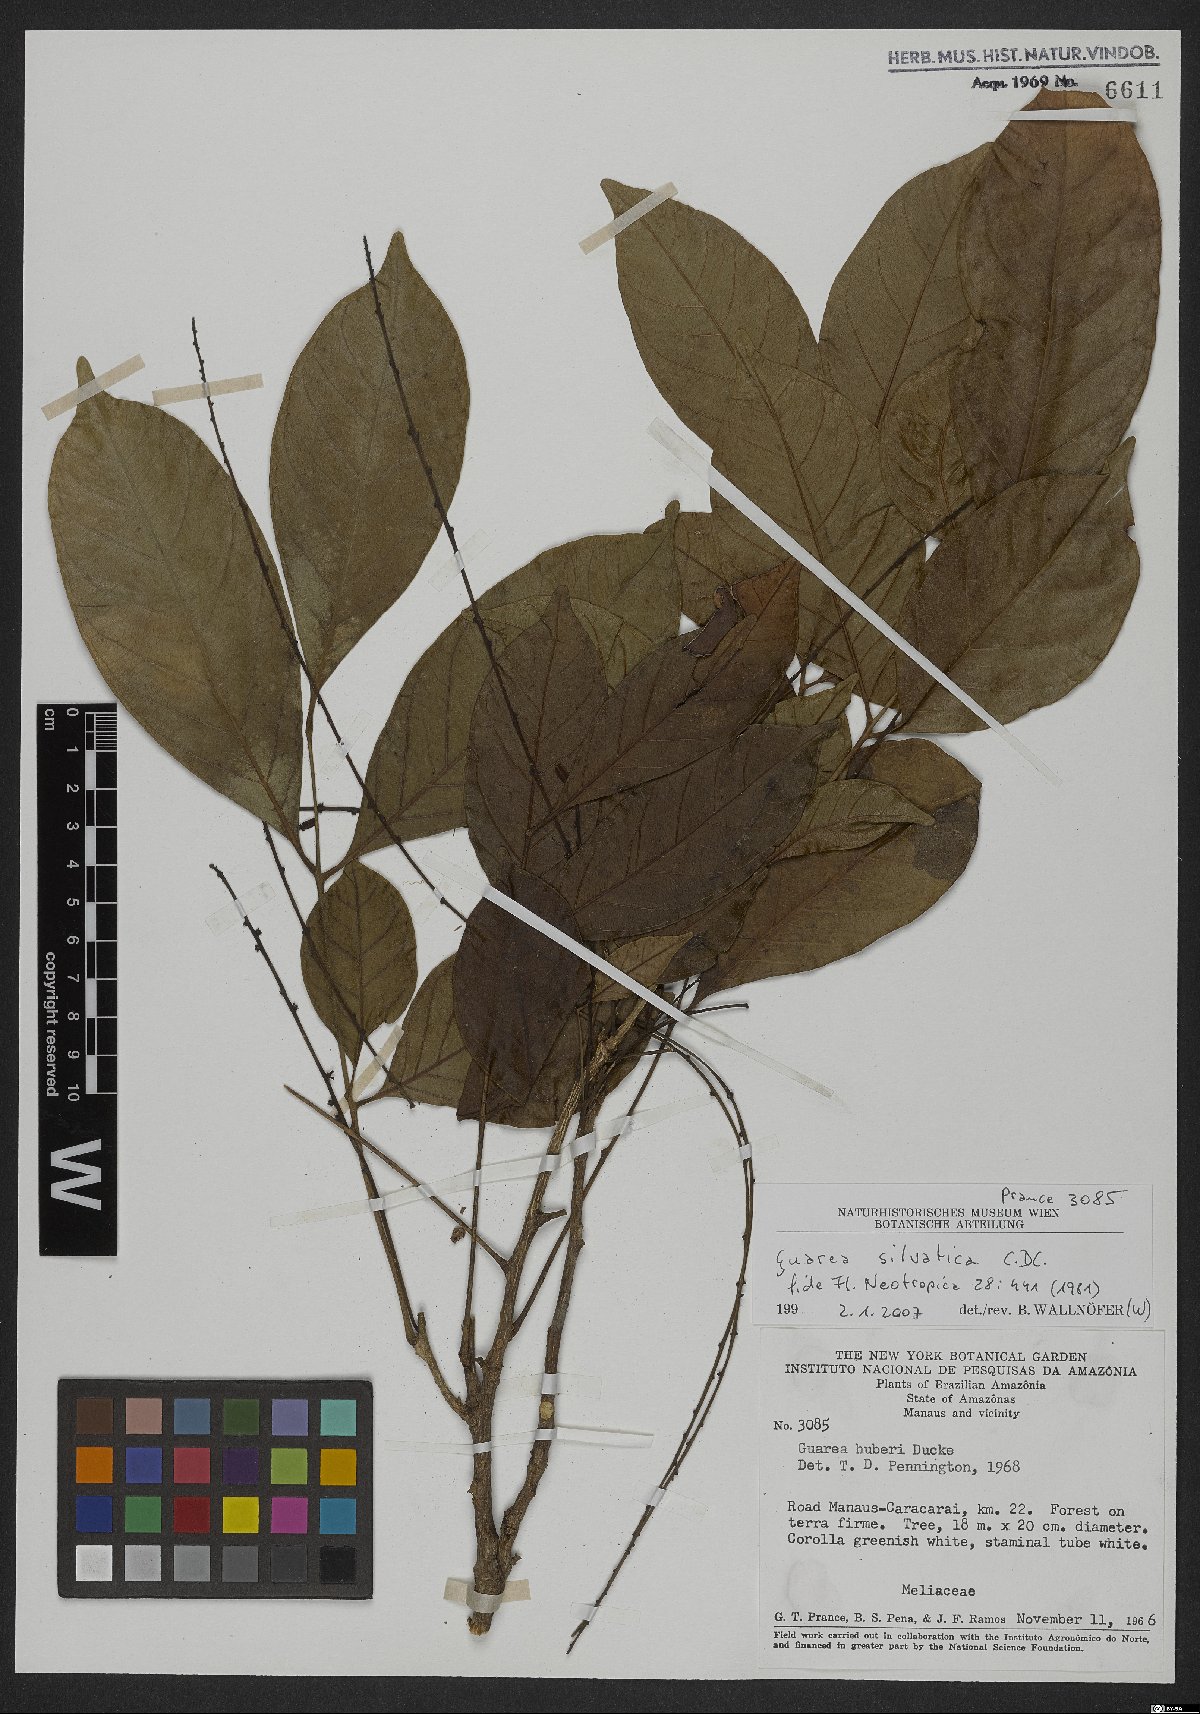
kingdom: Plantae
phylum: Tracheophyta
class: Magnoliopsida
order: Sapindales
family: Meliaceae
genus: Guarea
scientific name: Guarea silvatica
